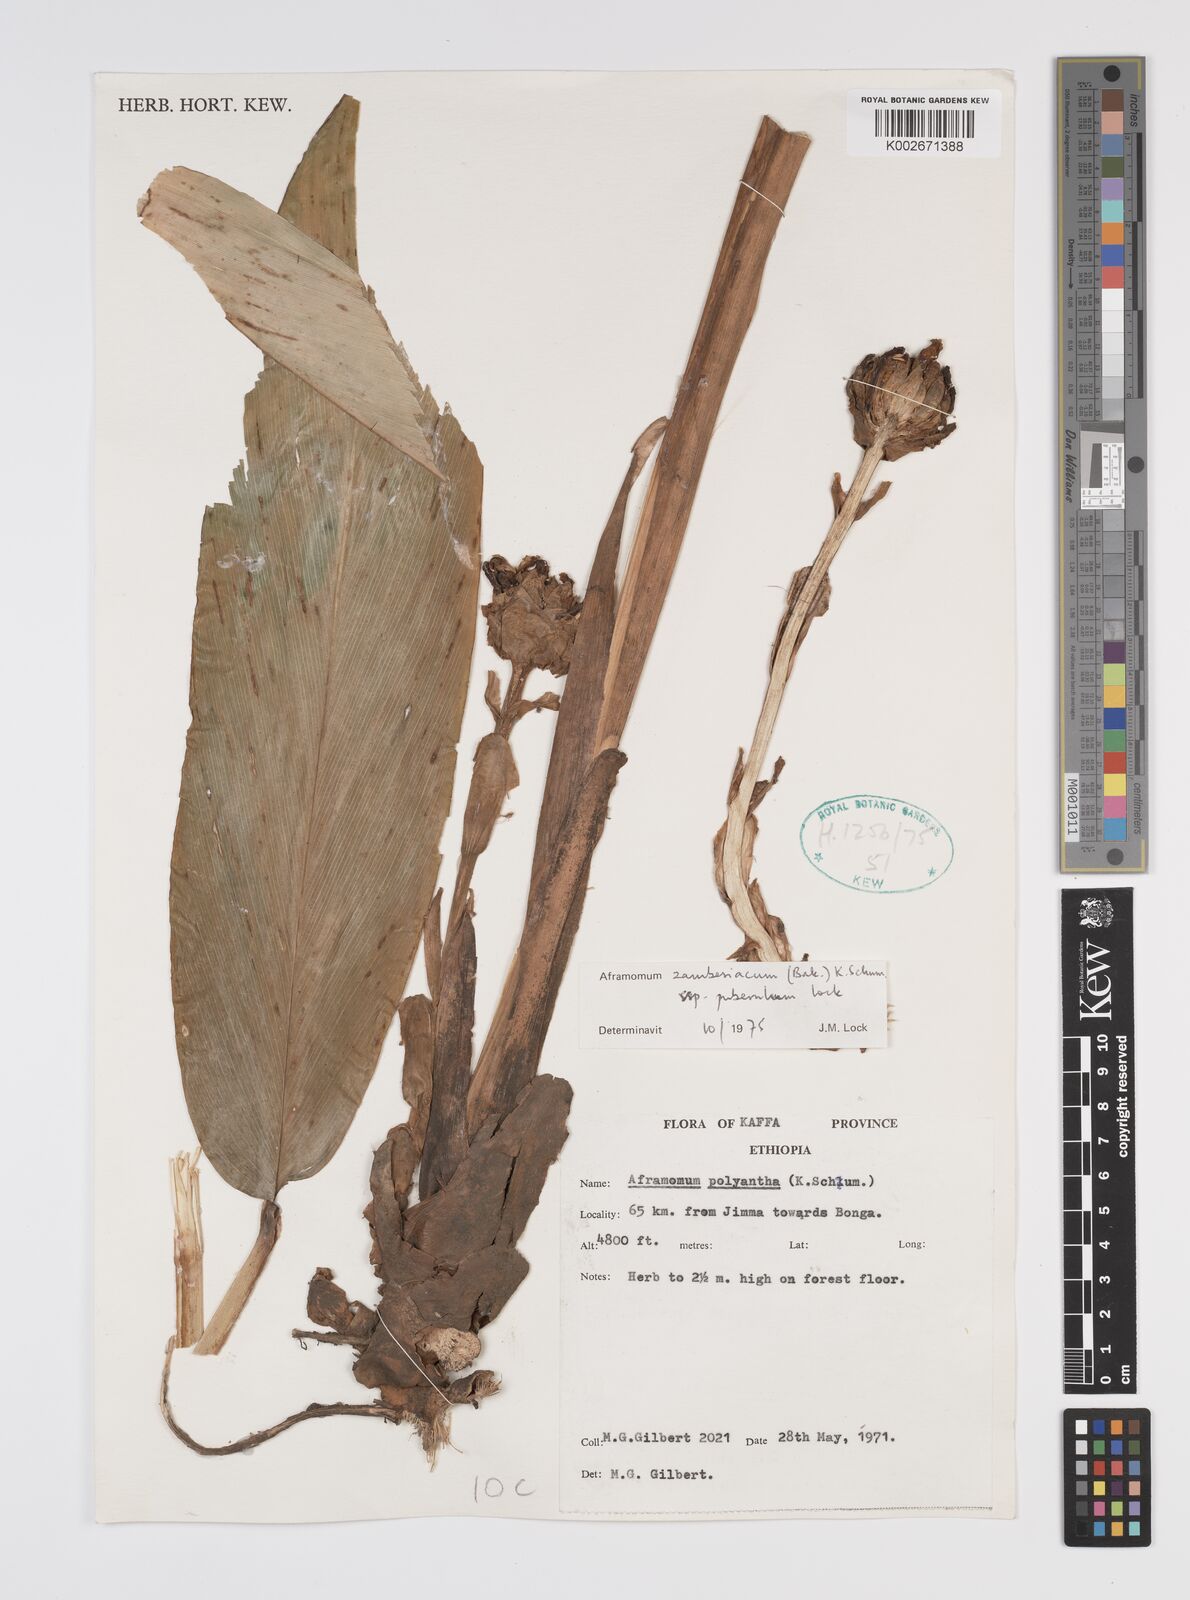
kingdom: Plantae
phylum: Tracheophyta
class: Liliopsida
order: Zingiberales
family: Zingiberaceae
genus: Aframomum
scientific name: Aframomum zambesiacum
